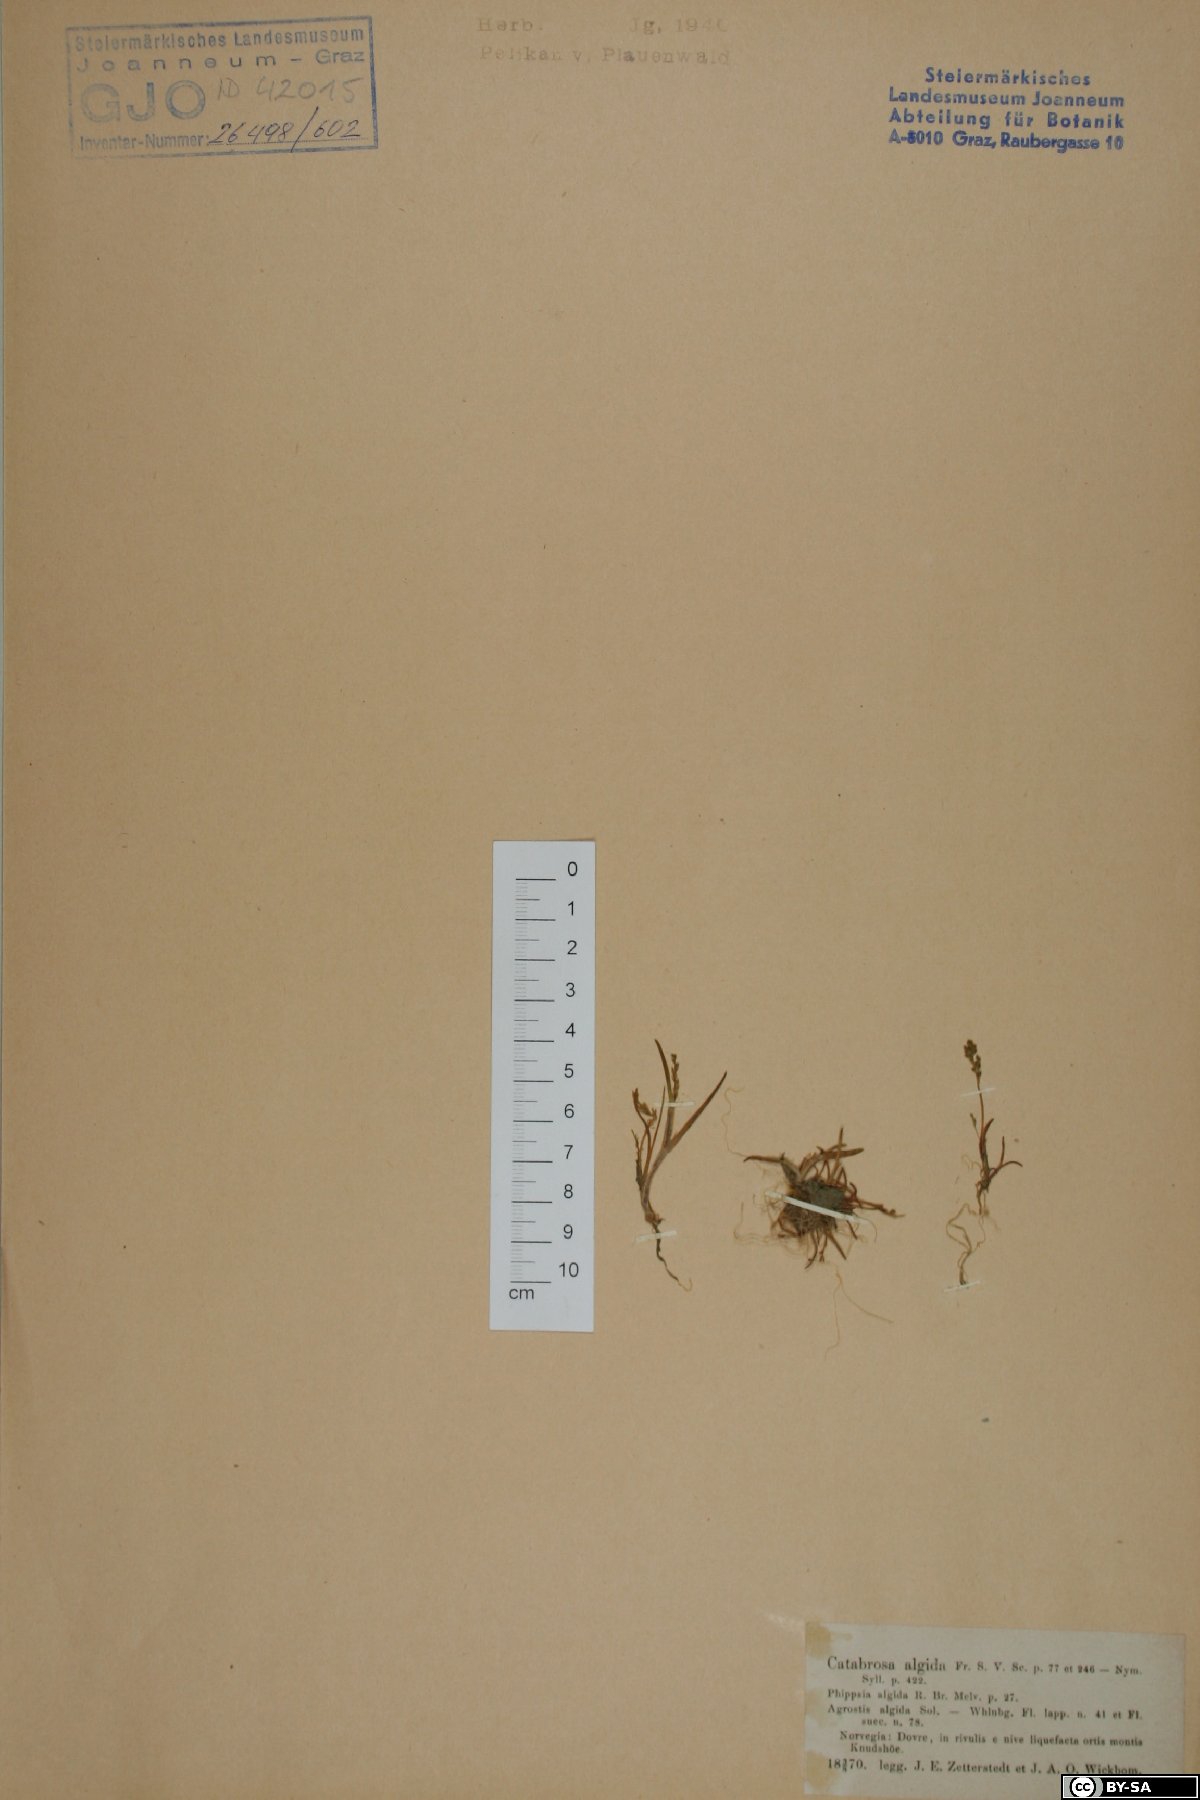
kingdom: Plantae
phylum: Tracheophyta
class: Liliopsida
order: Poales
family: Poaceae
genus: Phippsia
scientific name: Phippsia algida
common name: Ice grass
